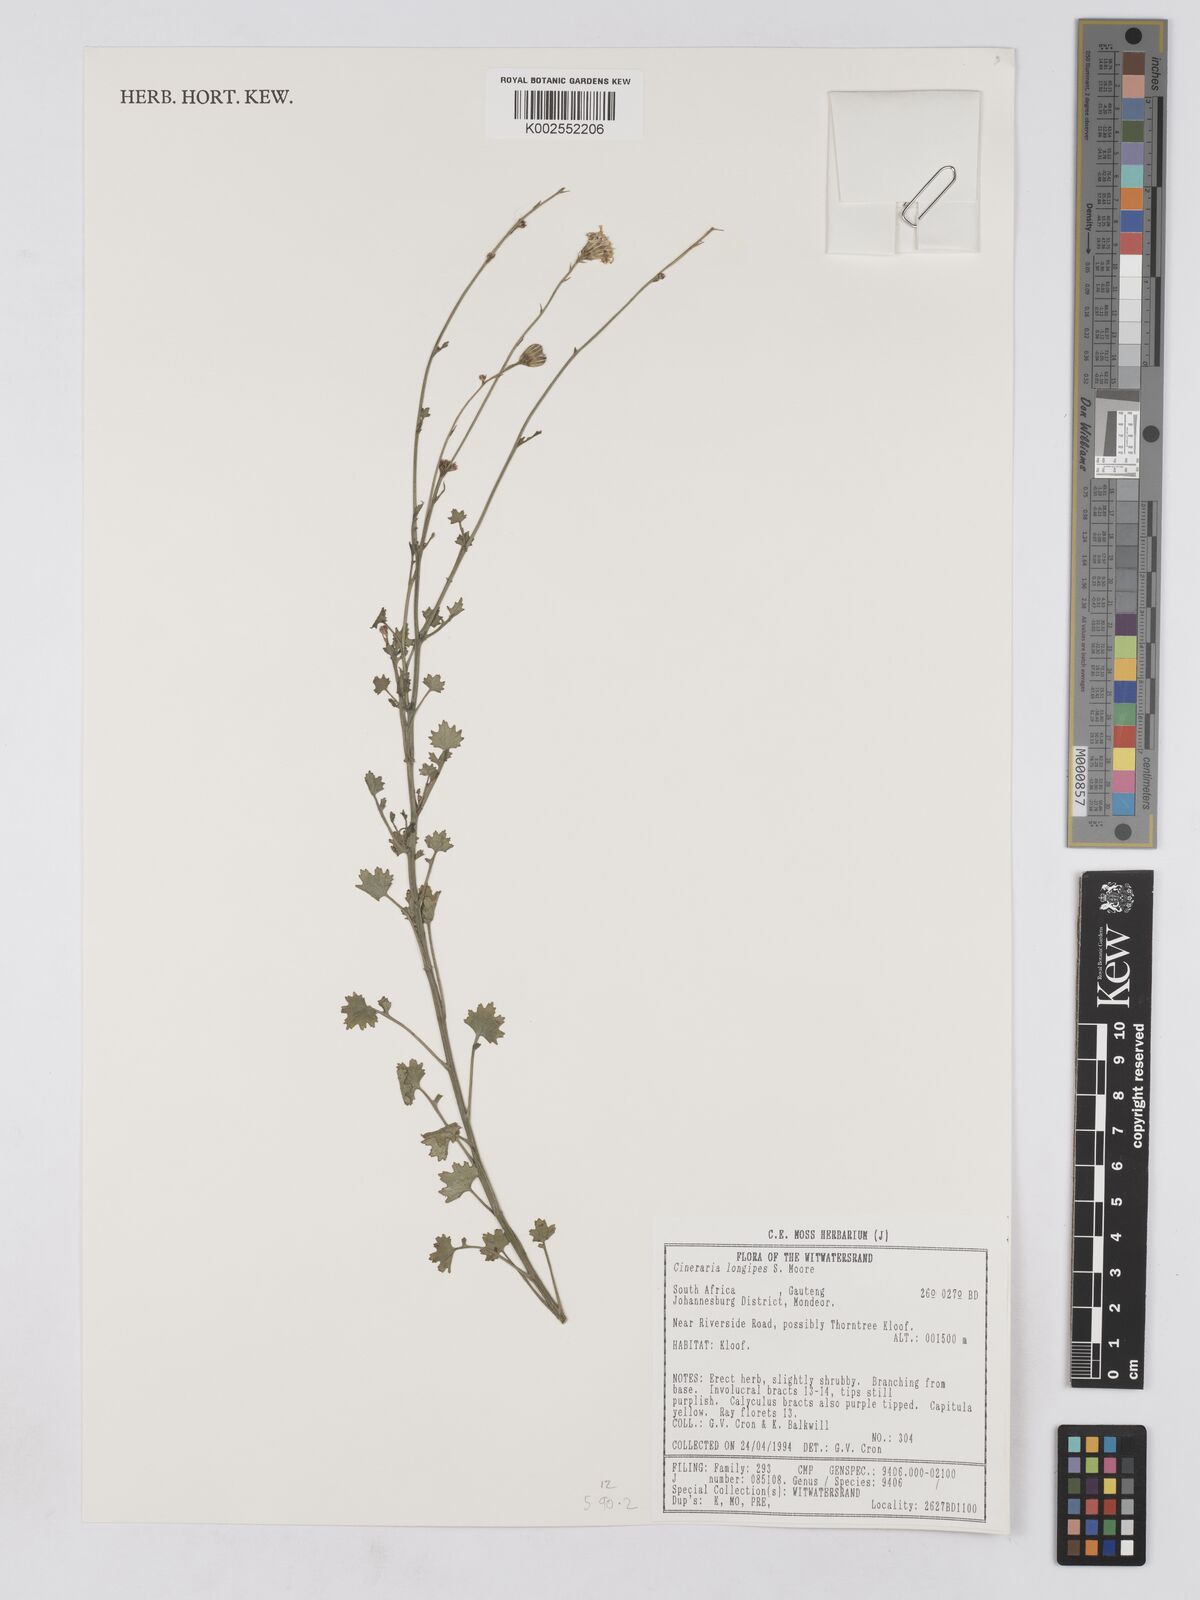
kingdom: Plantae
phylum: Tracheophyta
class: Magnoliopsida
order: Asterales
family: Asteraceae
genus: Cineraria
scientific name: Cineraria longipes
